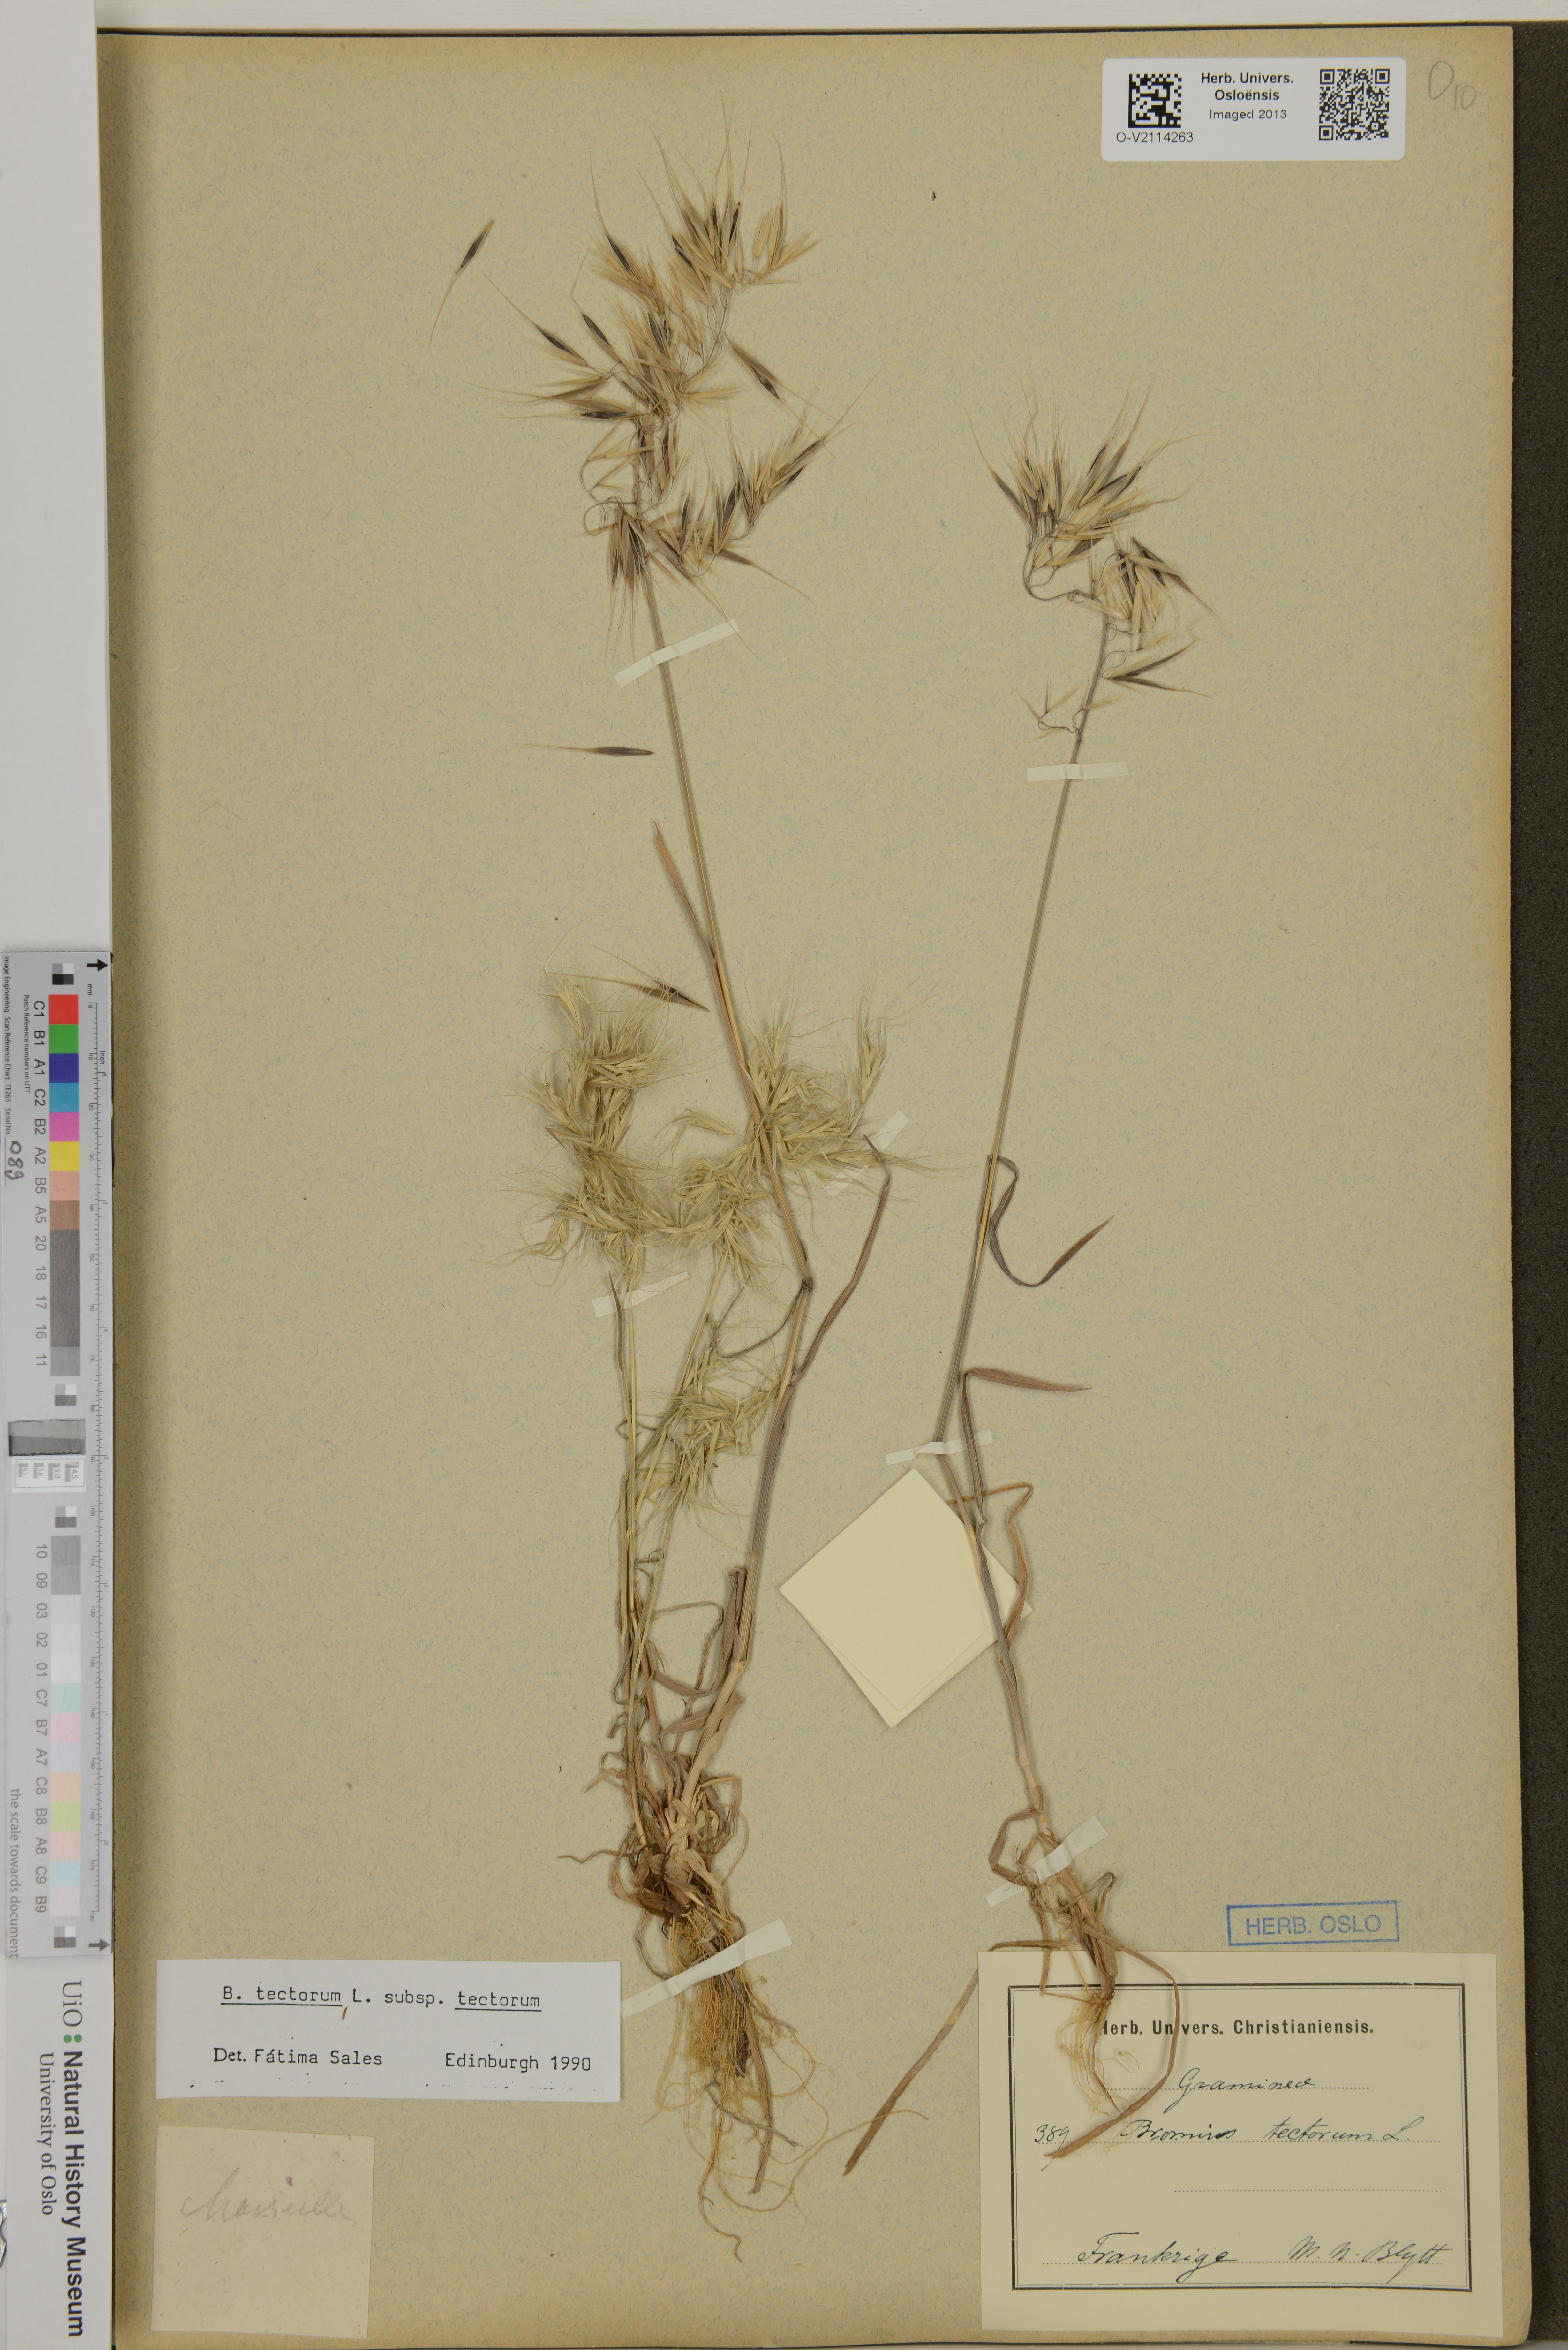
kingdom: Plantae
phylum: Tracheophyta
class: Liliopsida
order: Poales
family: Poaceae
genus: Bromus
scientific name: Bromus tectorum
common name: Cheatgrass
